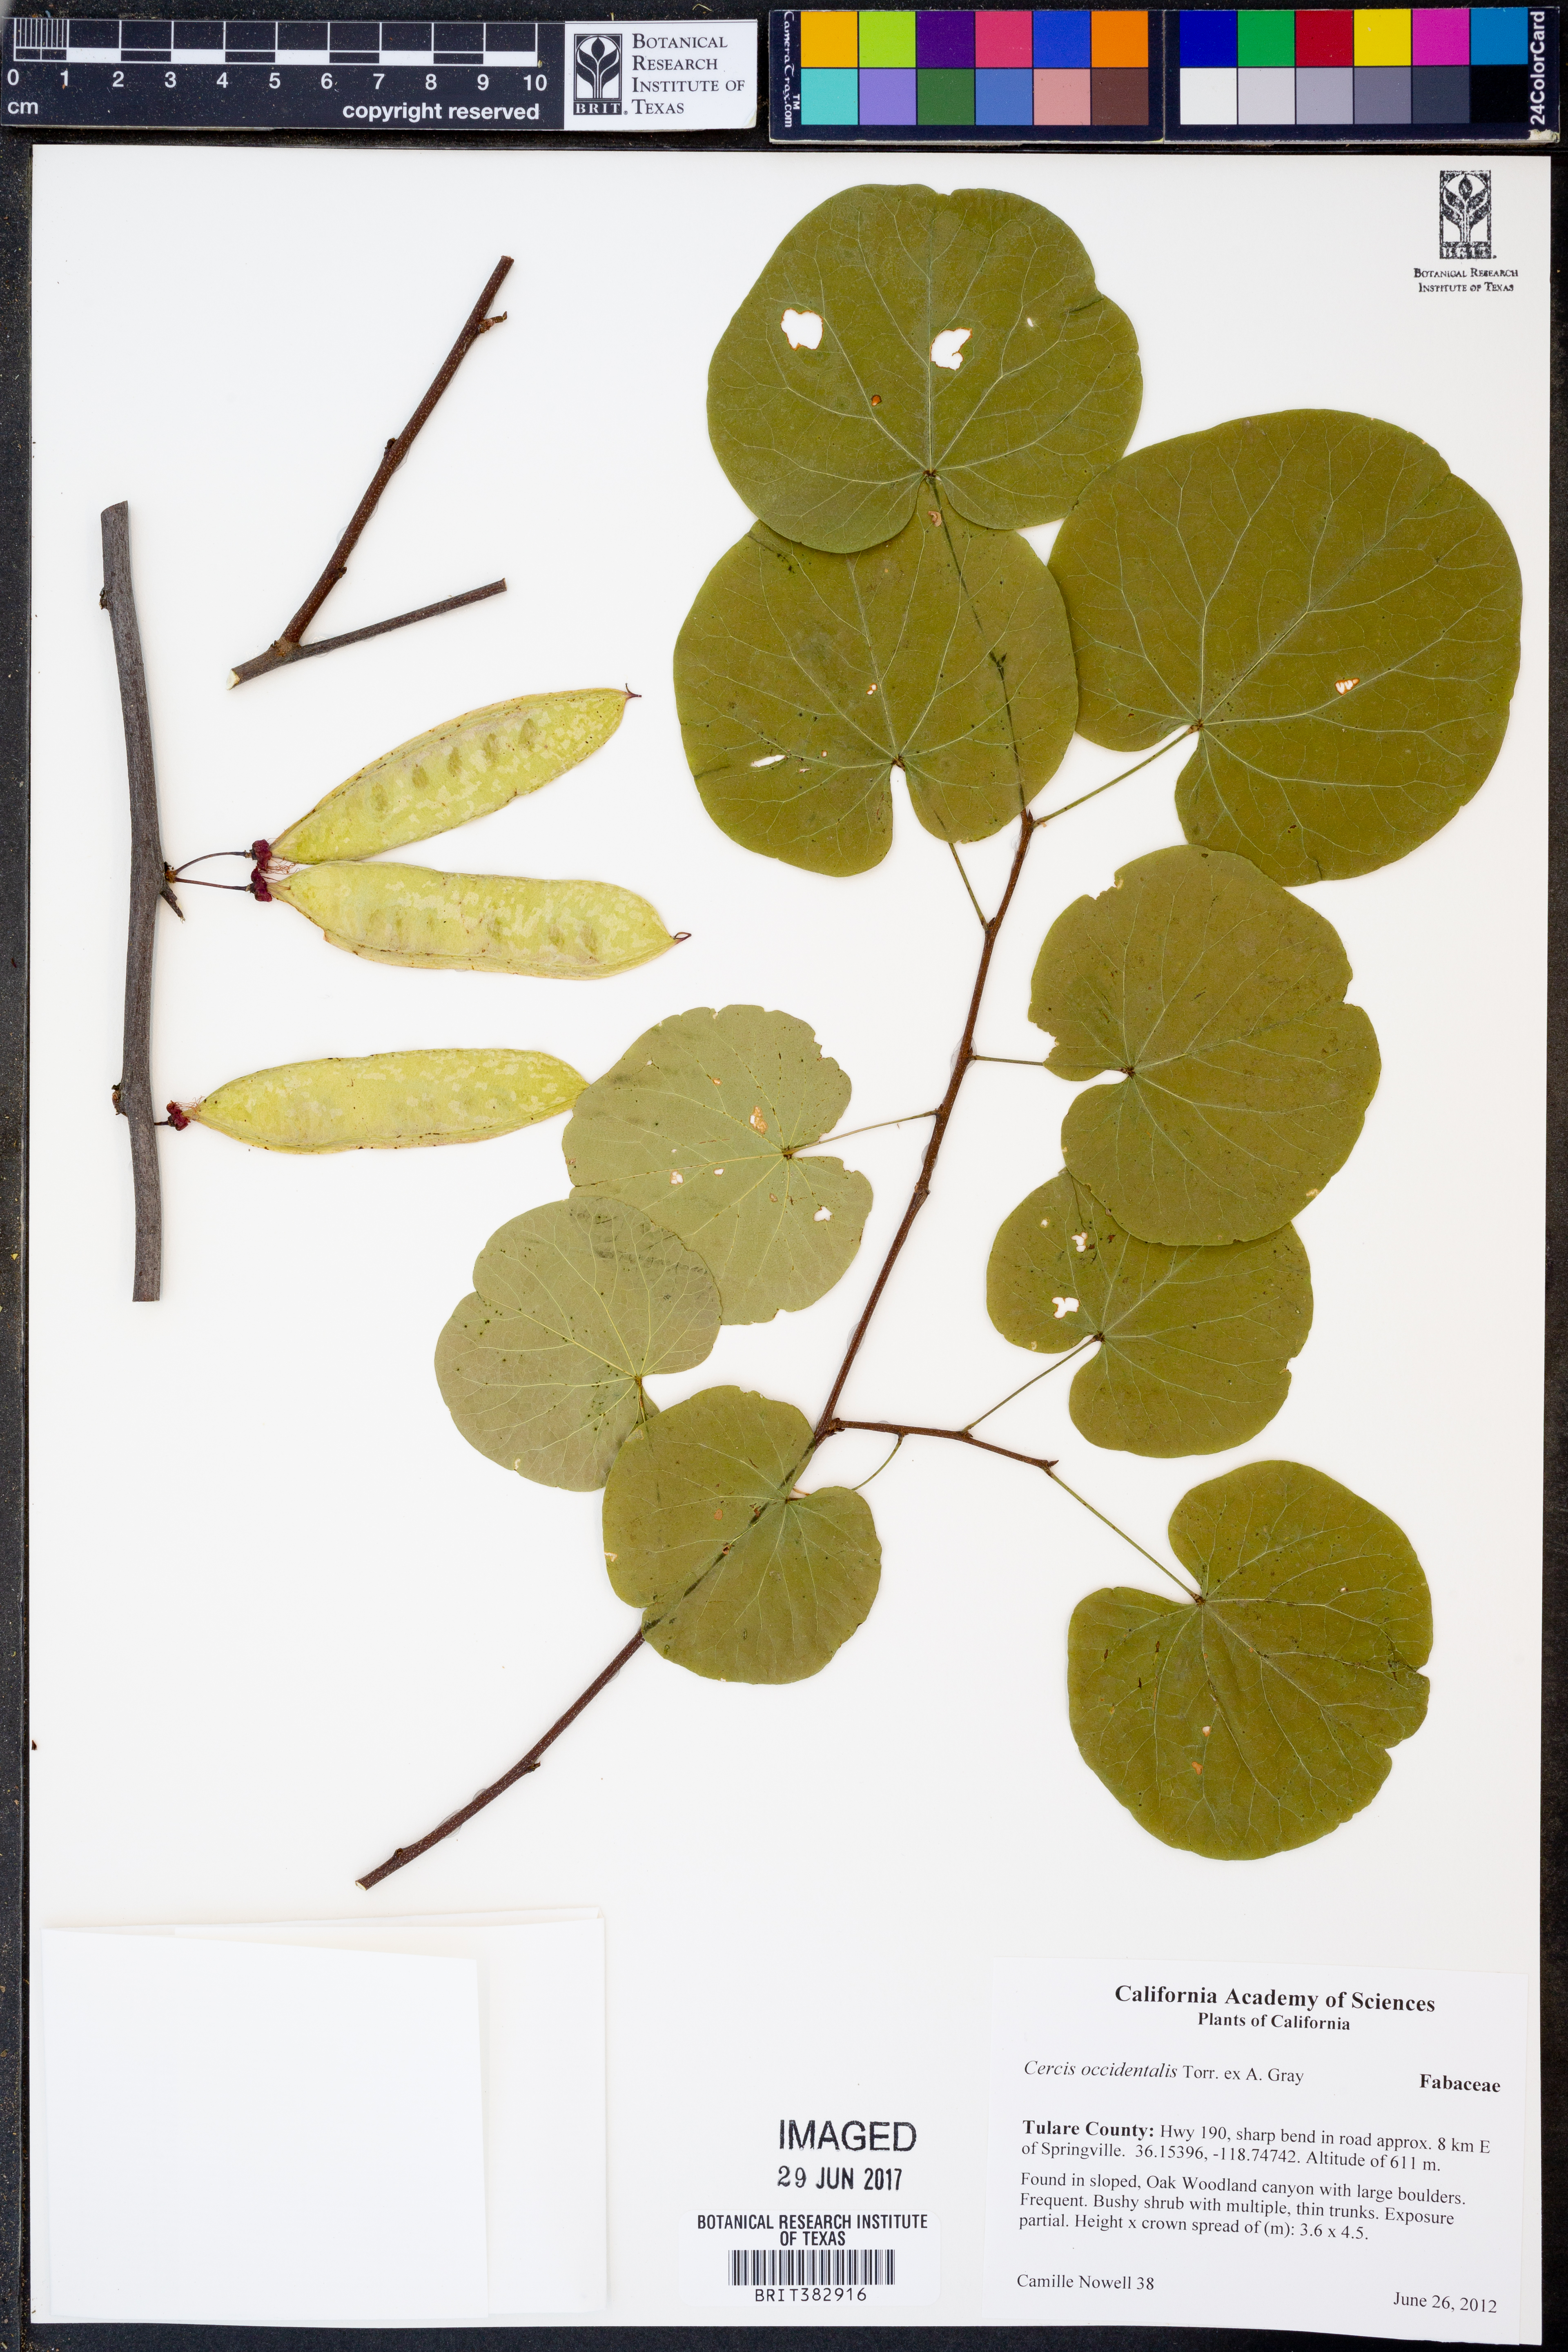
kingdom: Plantae
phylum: Tracheophyta
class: Magnoliopsida
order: Fabales
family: Fabaceae
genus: Cercis
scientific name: Cercis occidentalis
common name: California redbud
